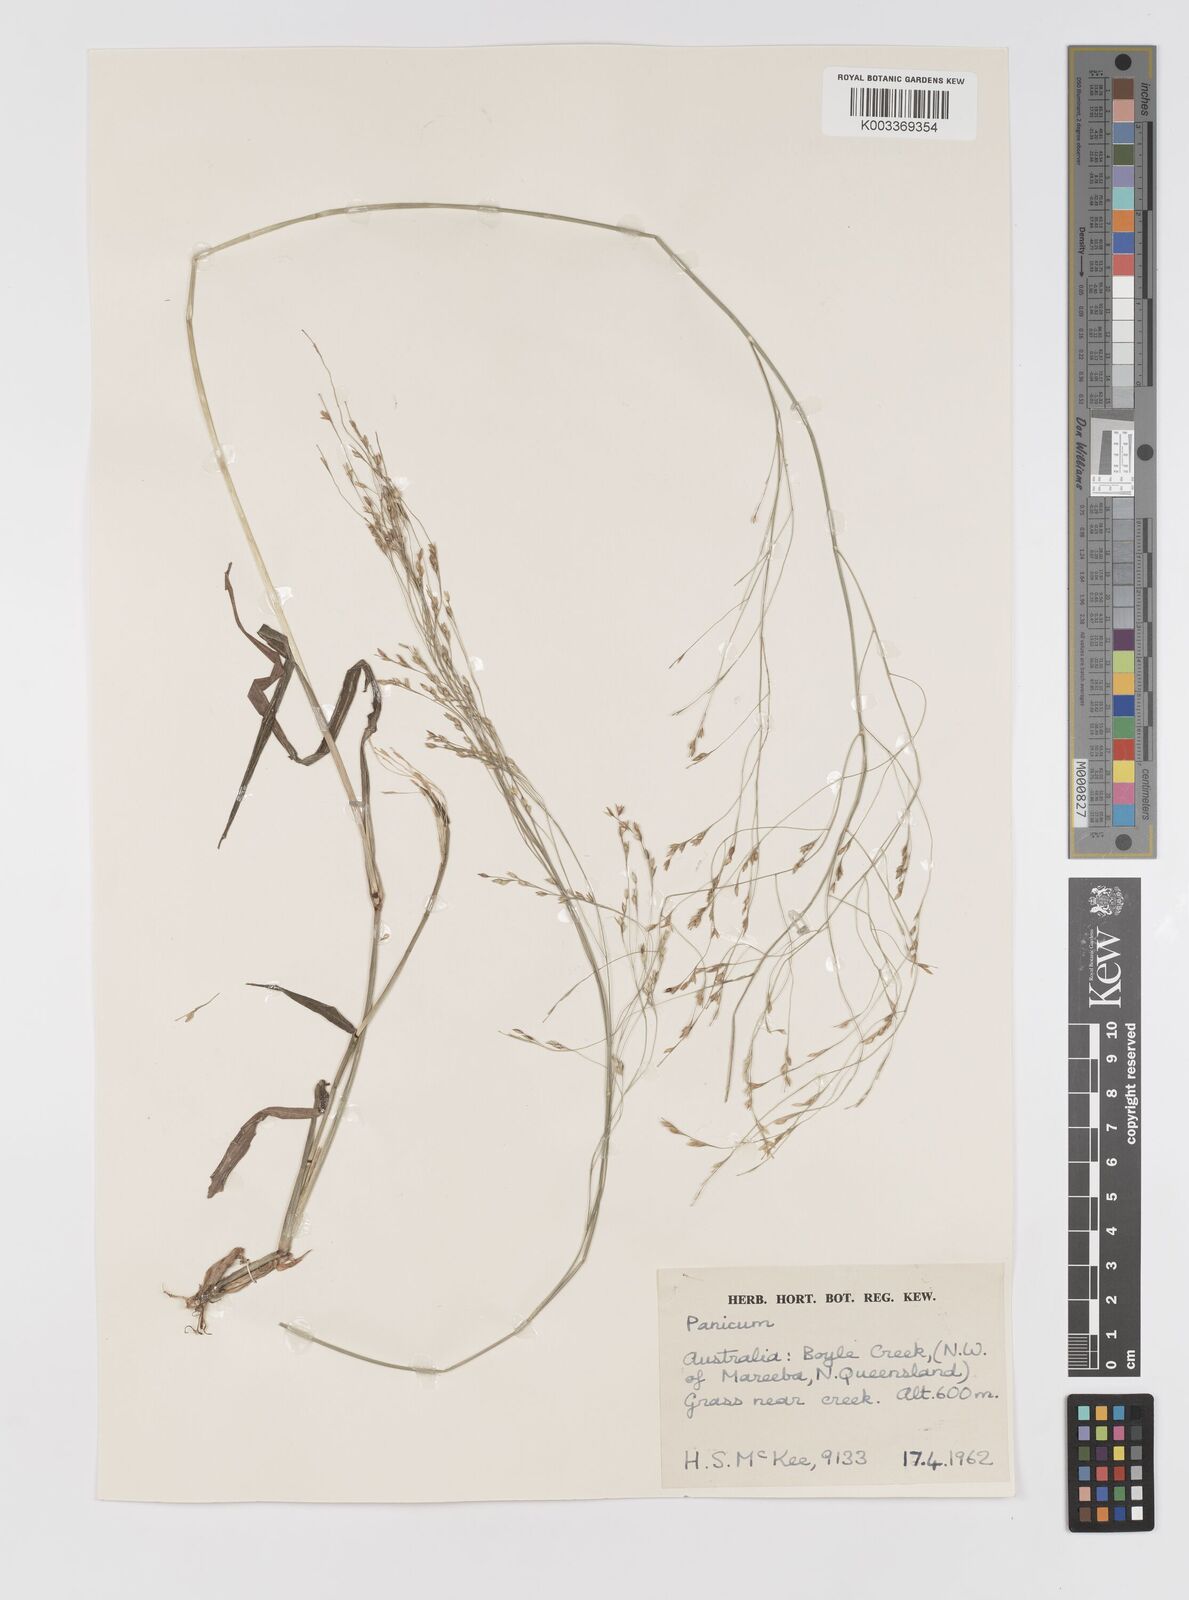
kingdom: Plantae
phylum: Tracheophyta
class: Liliopsida
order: Poales
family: Poaceae
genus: Panicum
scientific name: Panicum seminudum
